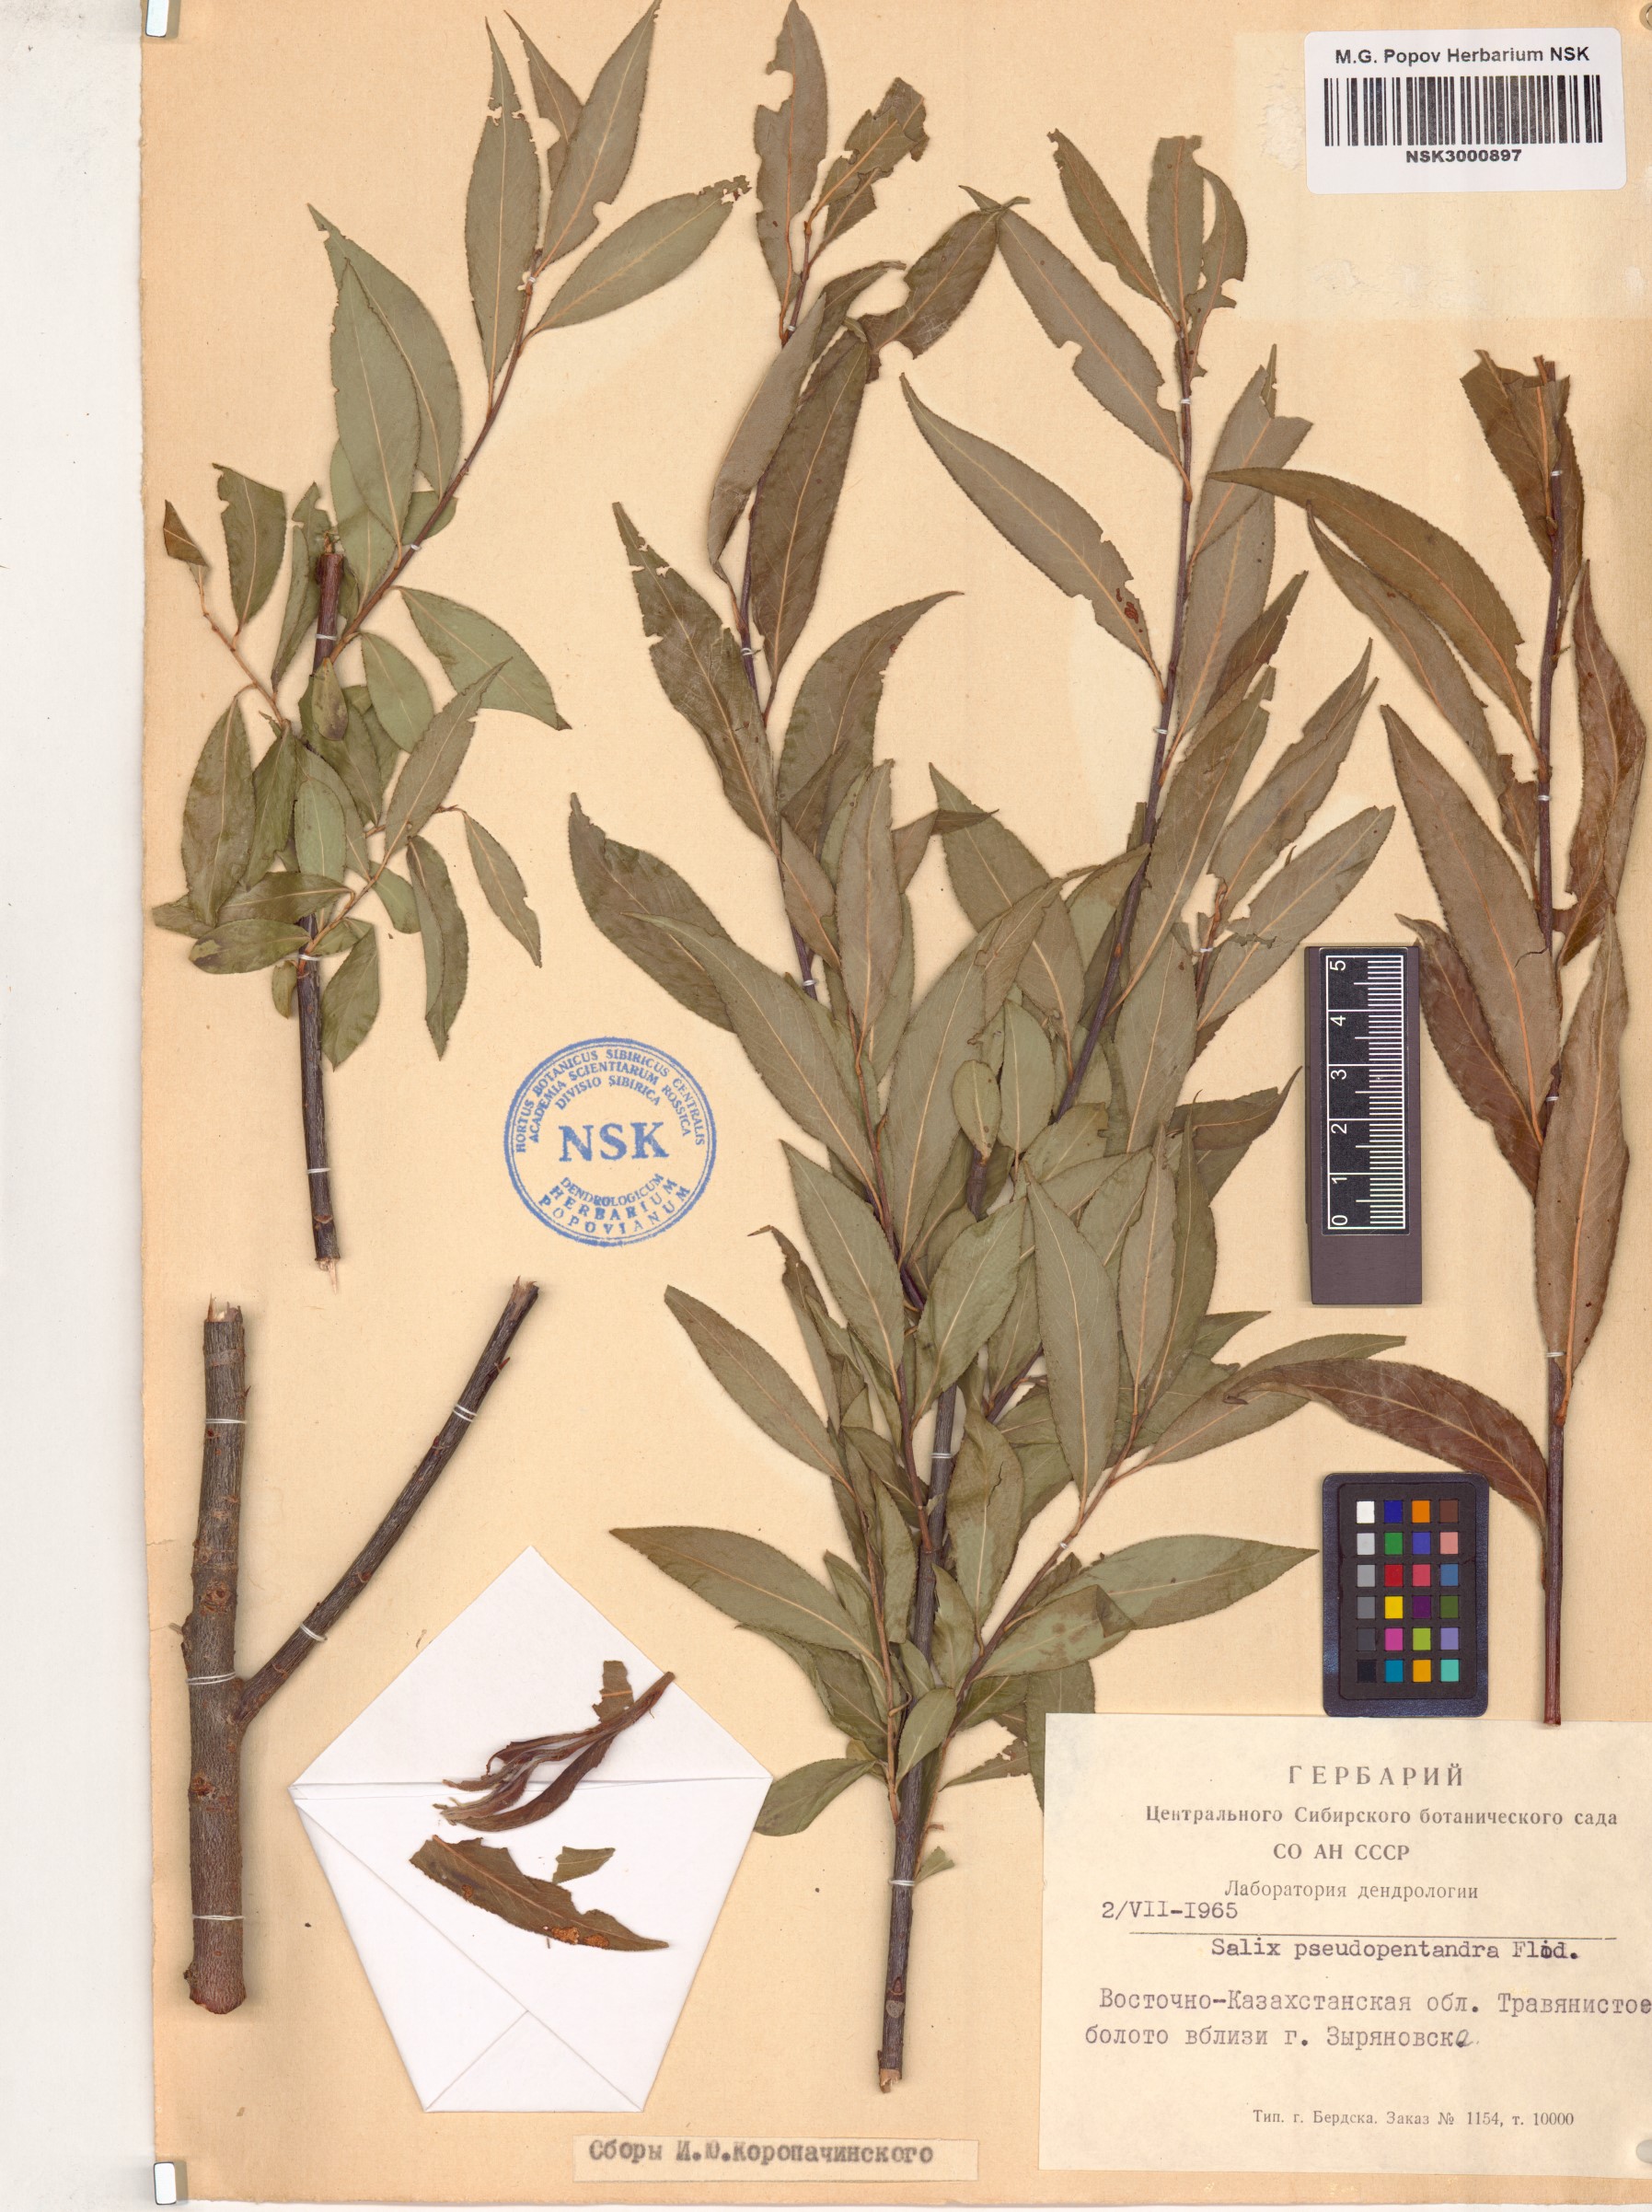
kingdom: Plantae
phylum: Tracheophyta
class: Magnoliopsida
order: Malpighiales
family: Salicaceae
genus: Salix
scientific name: Salix pseudopentandra
